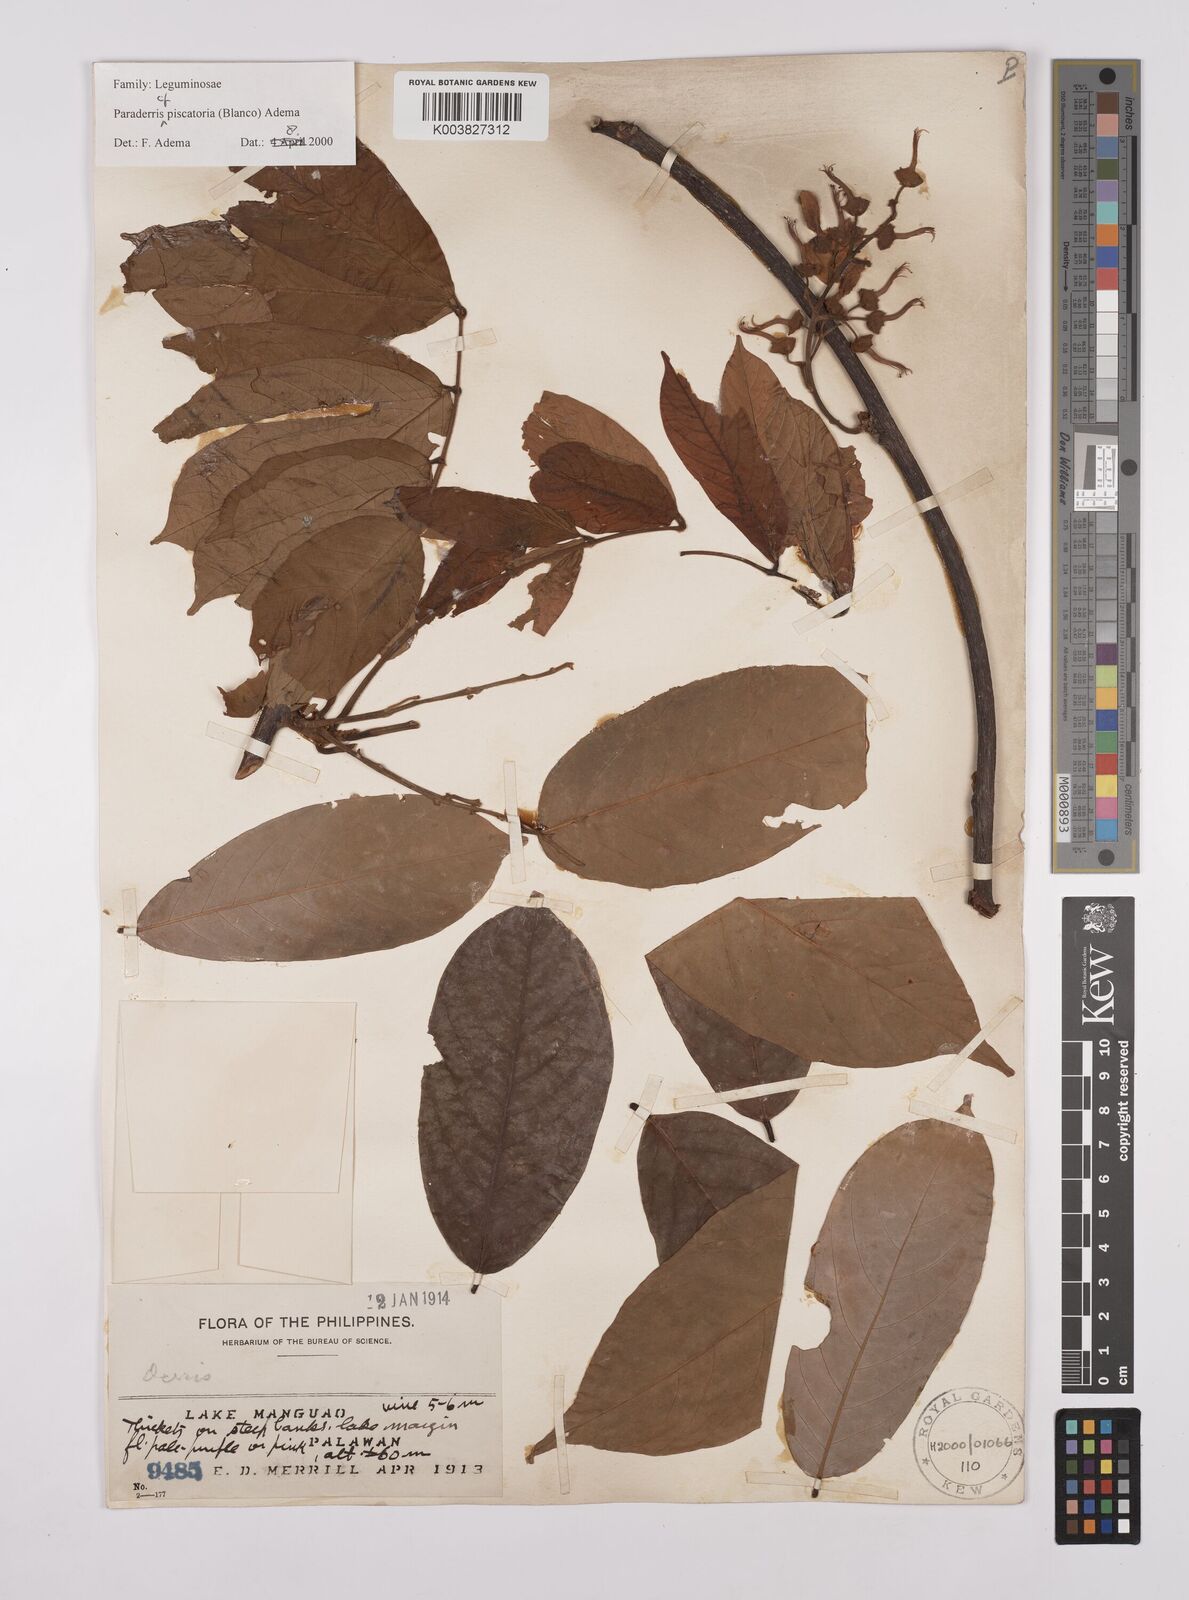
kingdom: Plantae
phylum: Tracheophyta
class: Magnoliopsida
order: Fabales
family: Fabaceae
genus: Derris
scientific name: Derris piscatoria
